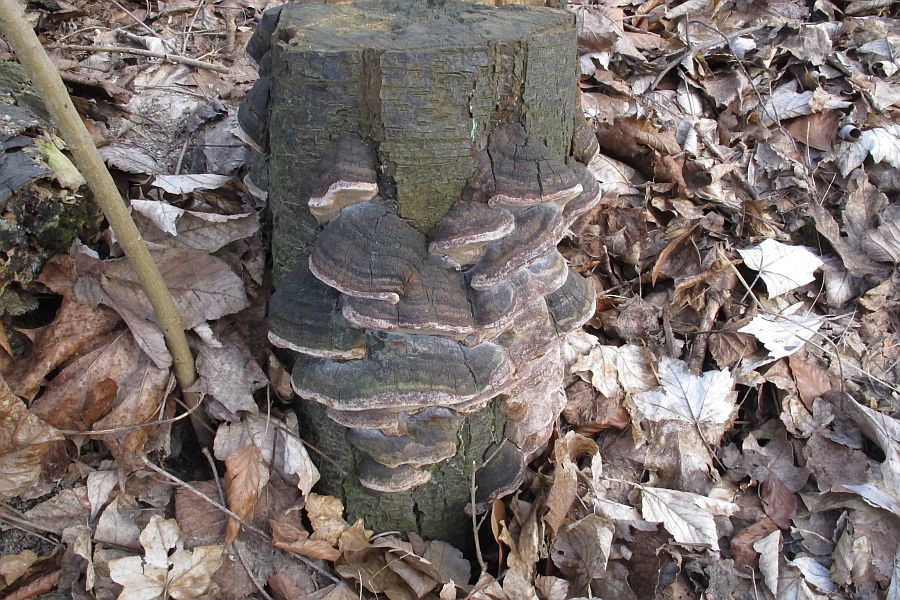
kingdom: Fungi
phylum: Basidiomycota
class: Agaricomycetes
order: Hymenochaetales
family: Hymenochaetaceae
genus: Phellinus
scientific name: Phellinus pomaceus
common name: blomme-ildporesvamp
